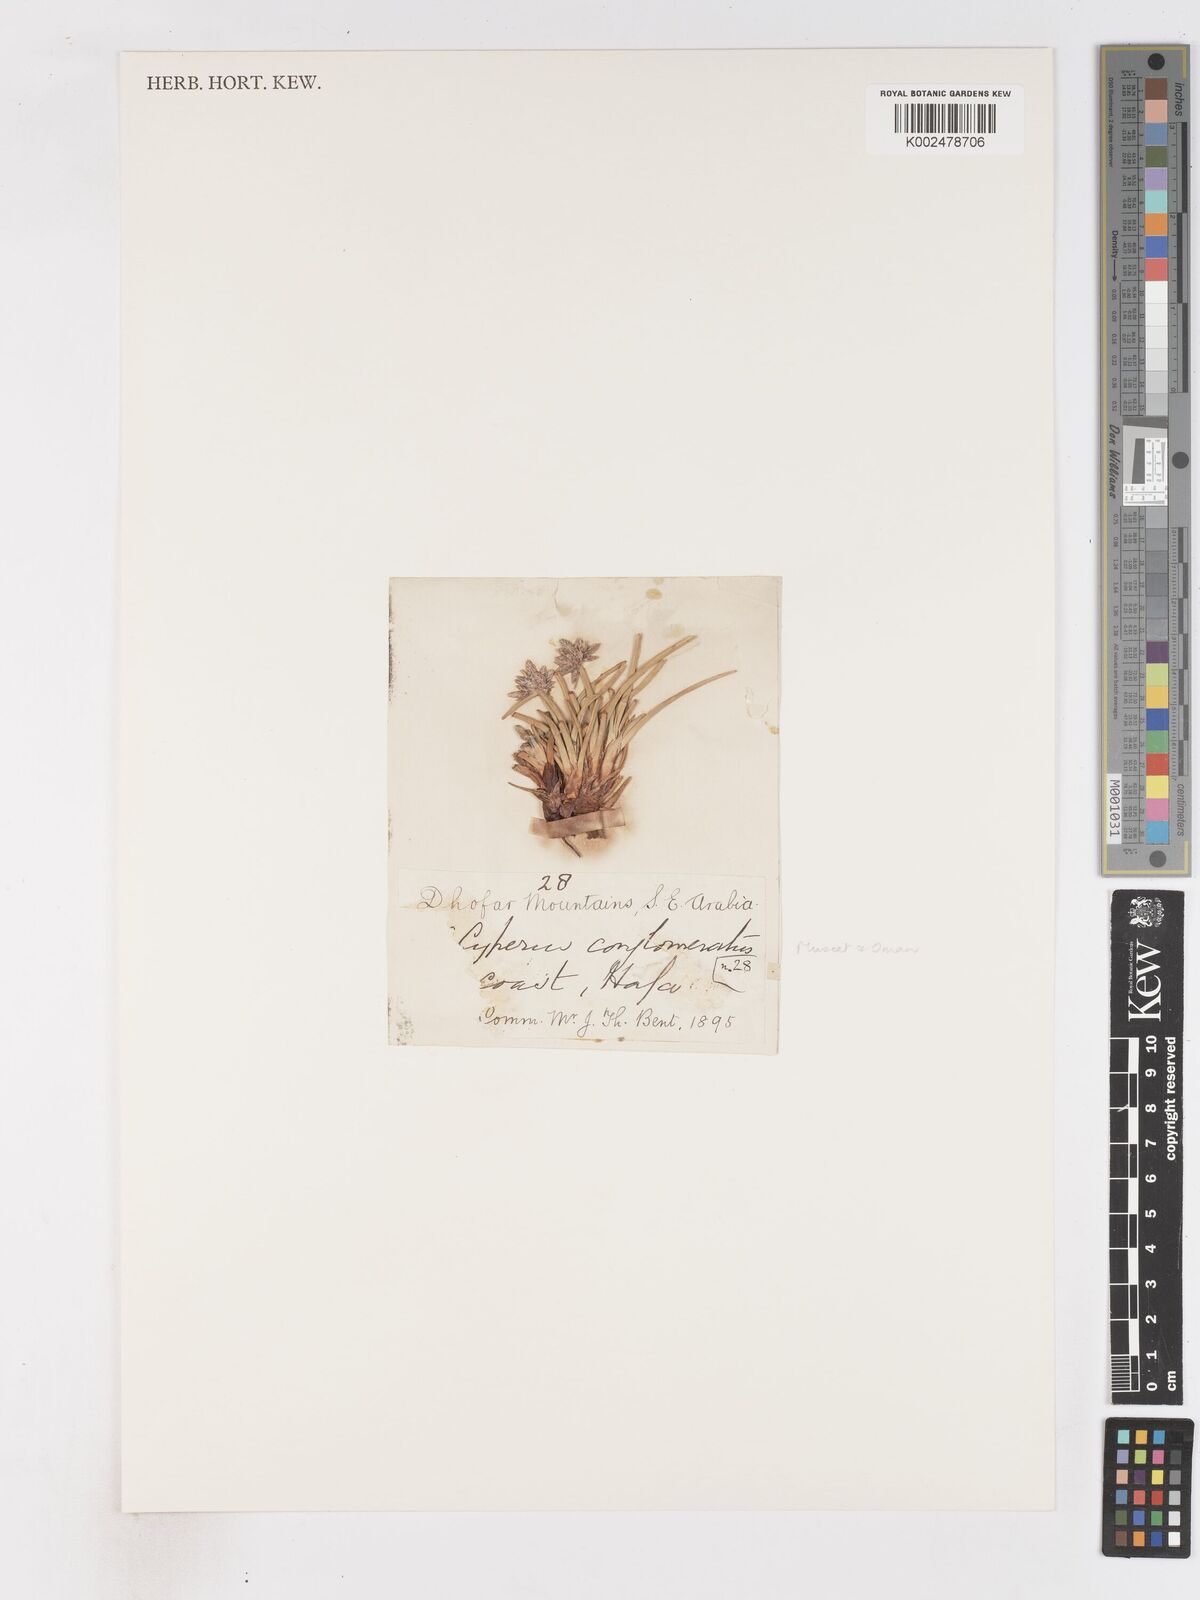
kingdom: Plantae
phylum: Tracheophyta
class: Liliopsida
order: Poales
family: Cyperaceae
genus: Cyperus
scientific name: Cyperus conglomeratus
